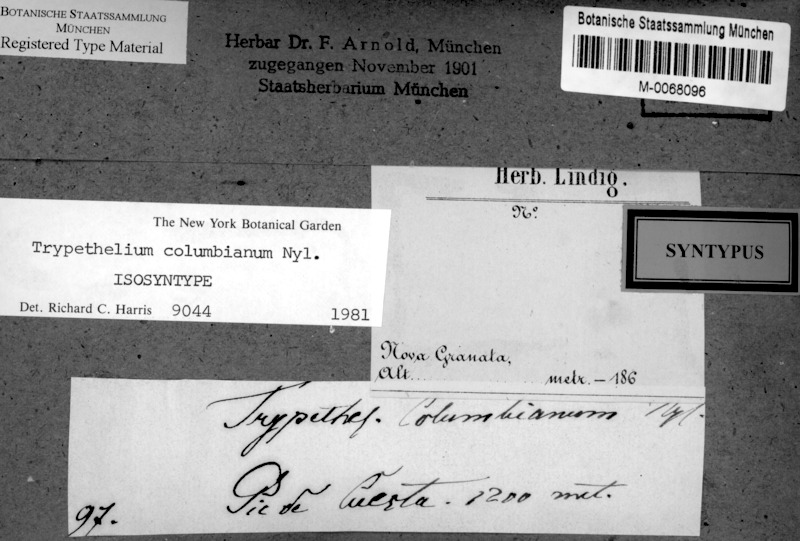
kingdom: Fungi
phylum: Ascomycota
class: Dothideomycetes
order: Trypetheliales
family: Trypetheliaceae
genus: Architrypethelium
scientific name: Architrypethelium columbianum
